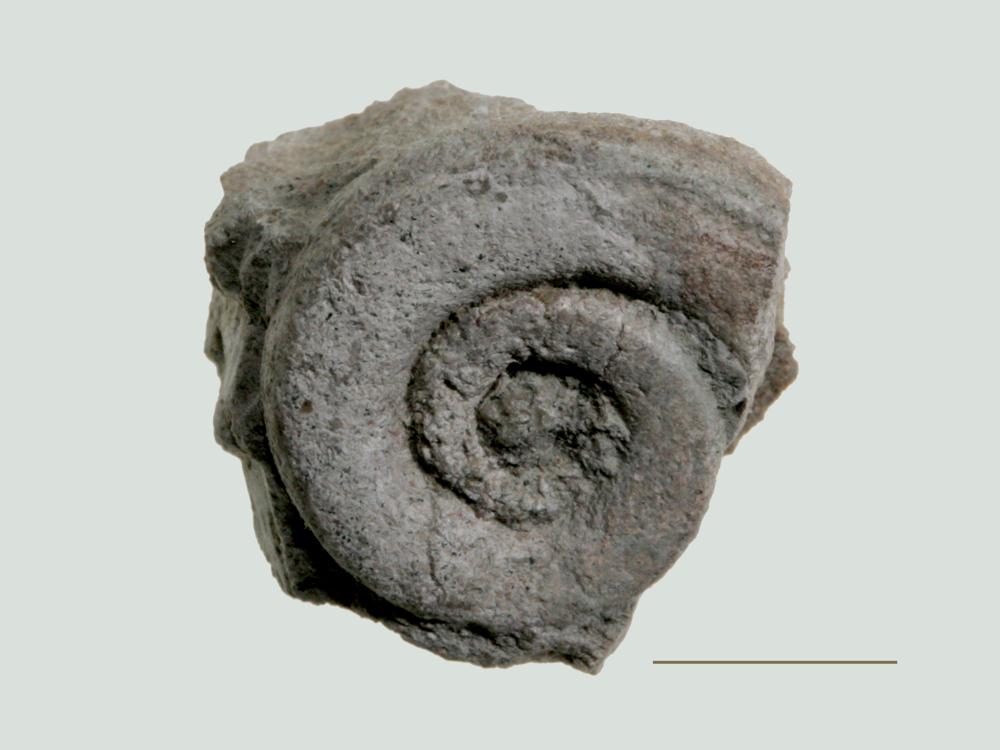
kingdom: Animalia
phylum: Mollusca
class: Gastropoda
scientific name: Gastropoda
